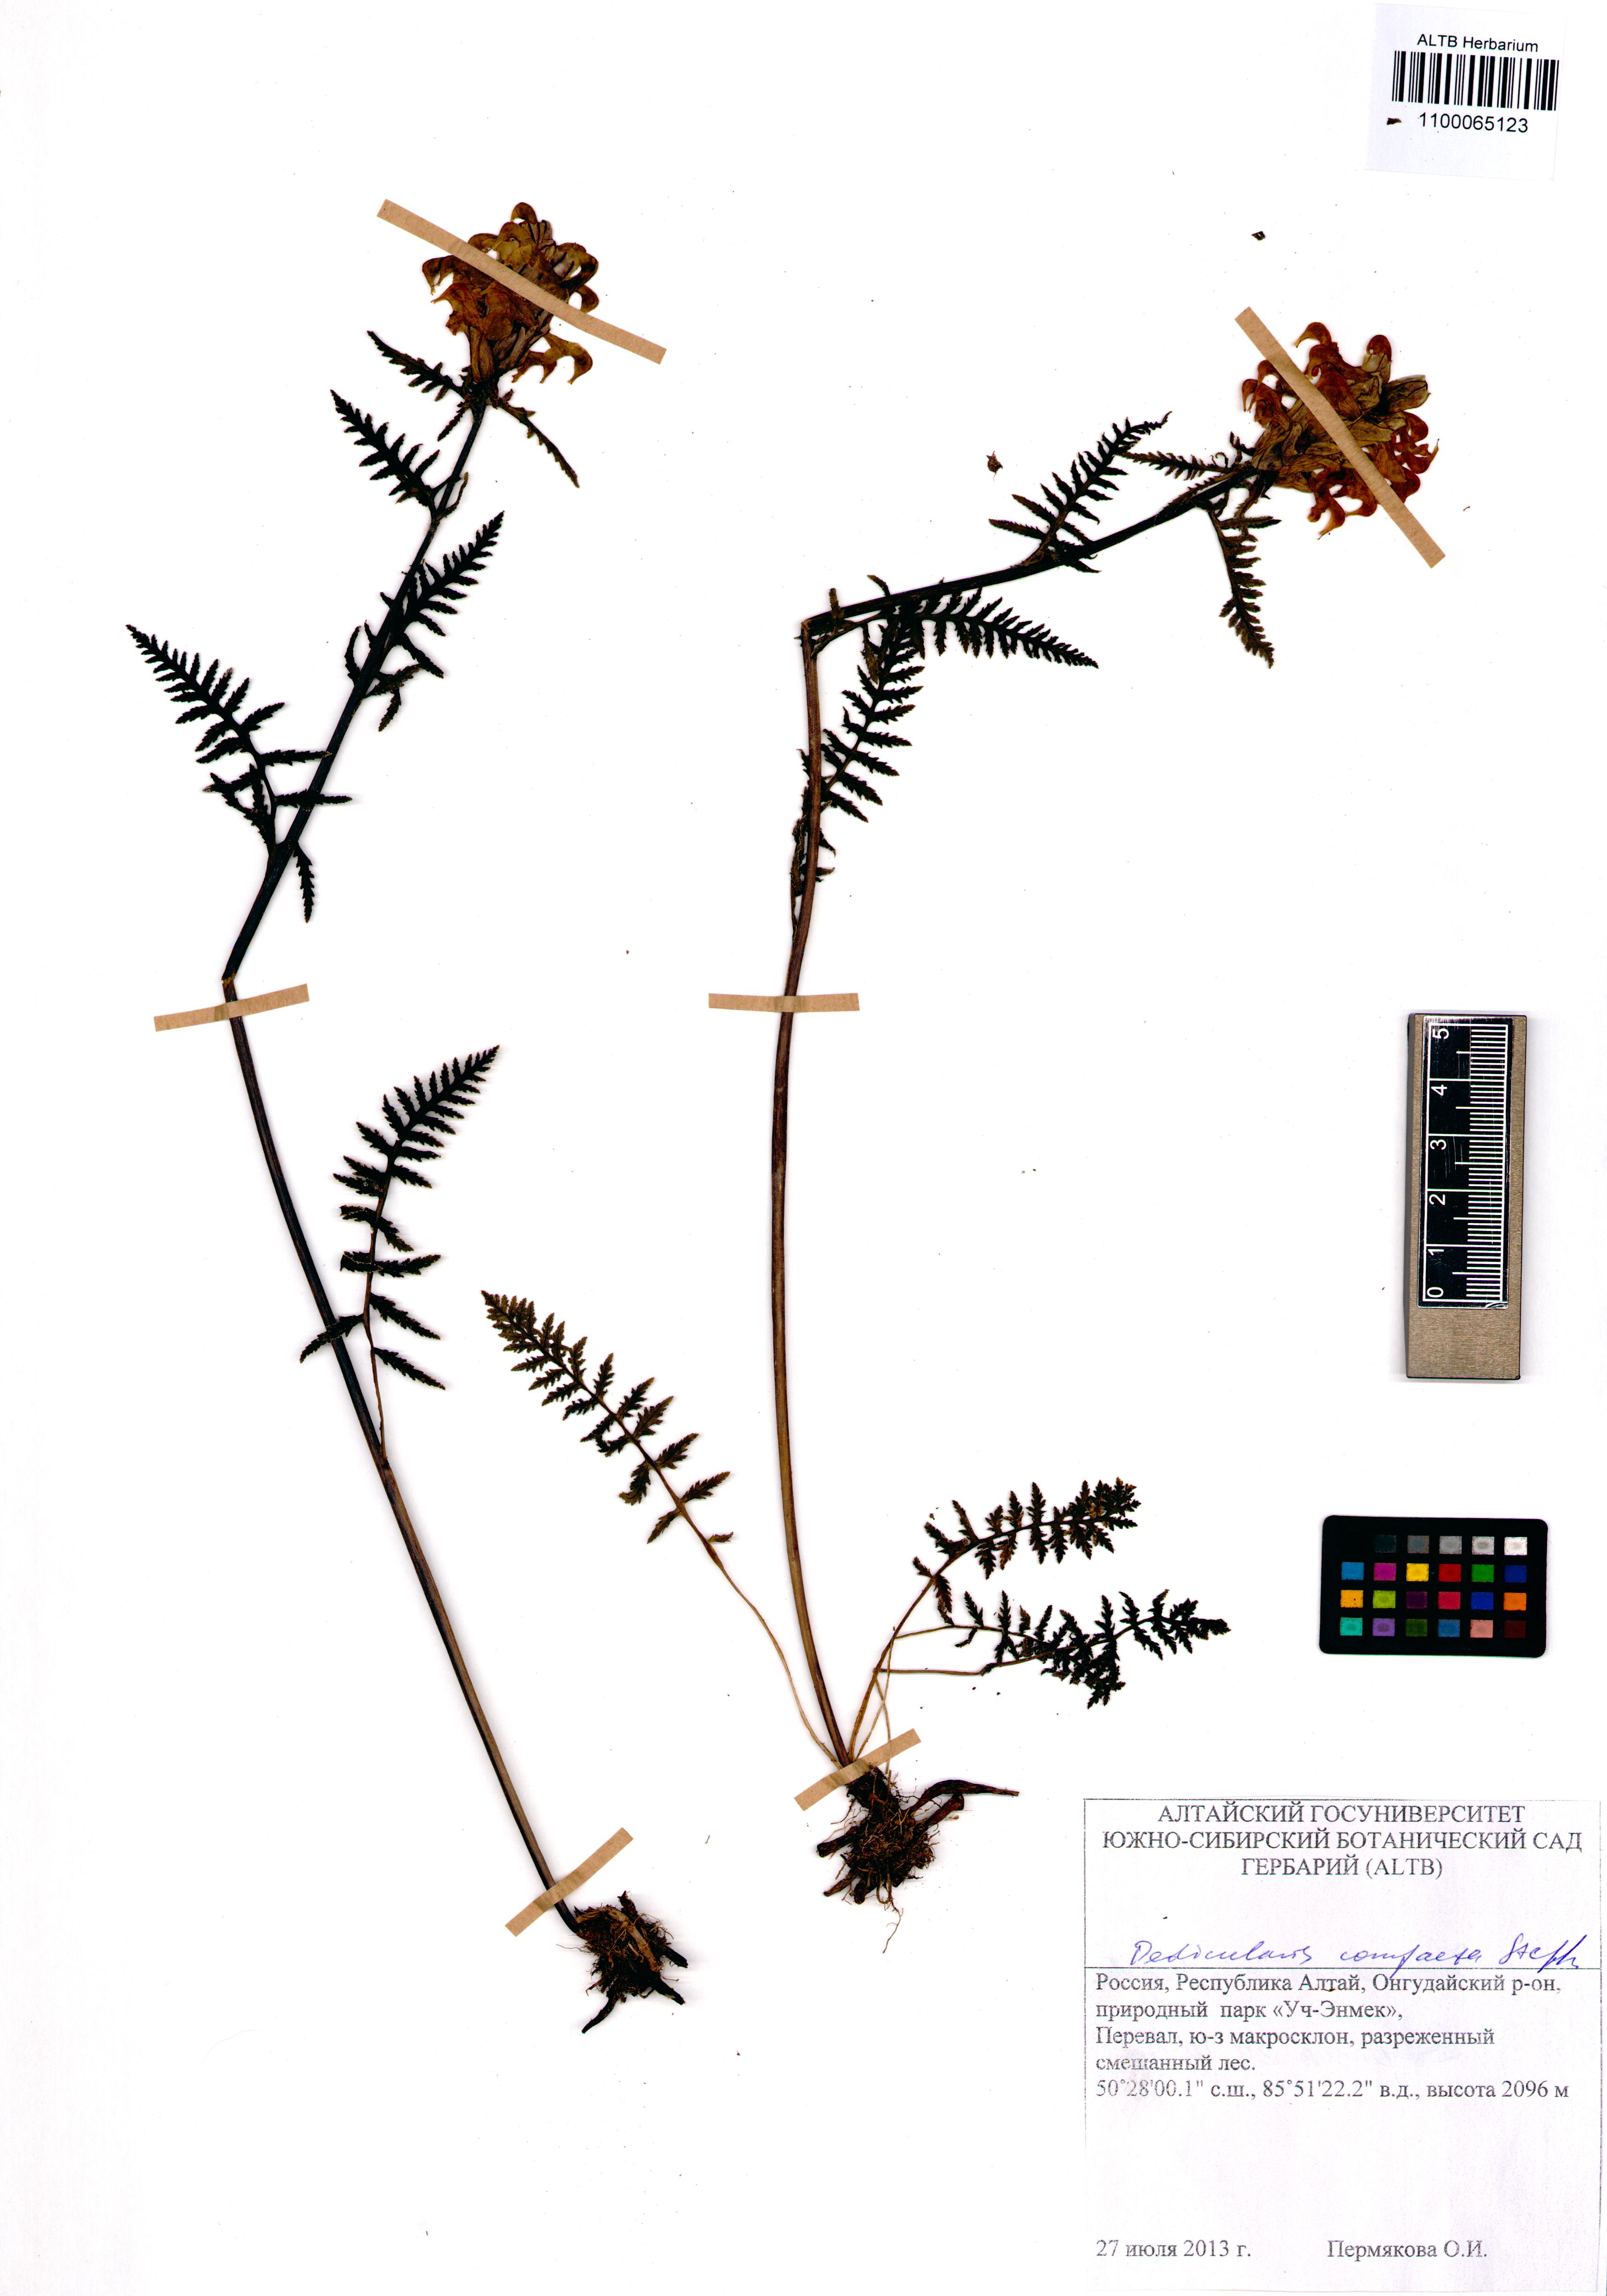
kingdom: Plantae
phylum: Tracheophyta
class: Magnoliopsida
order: Lamiales
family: Orobanchaceae
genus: Pedicularis
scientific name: Pedicularis compacta
